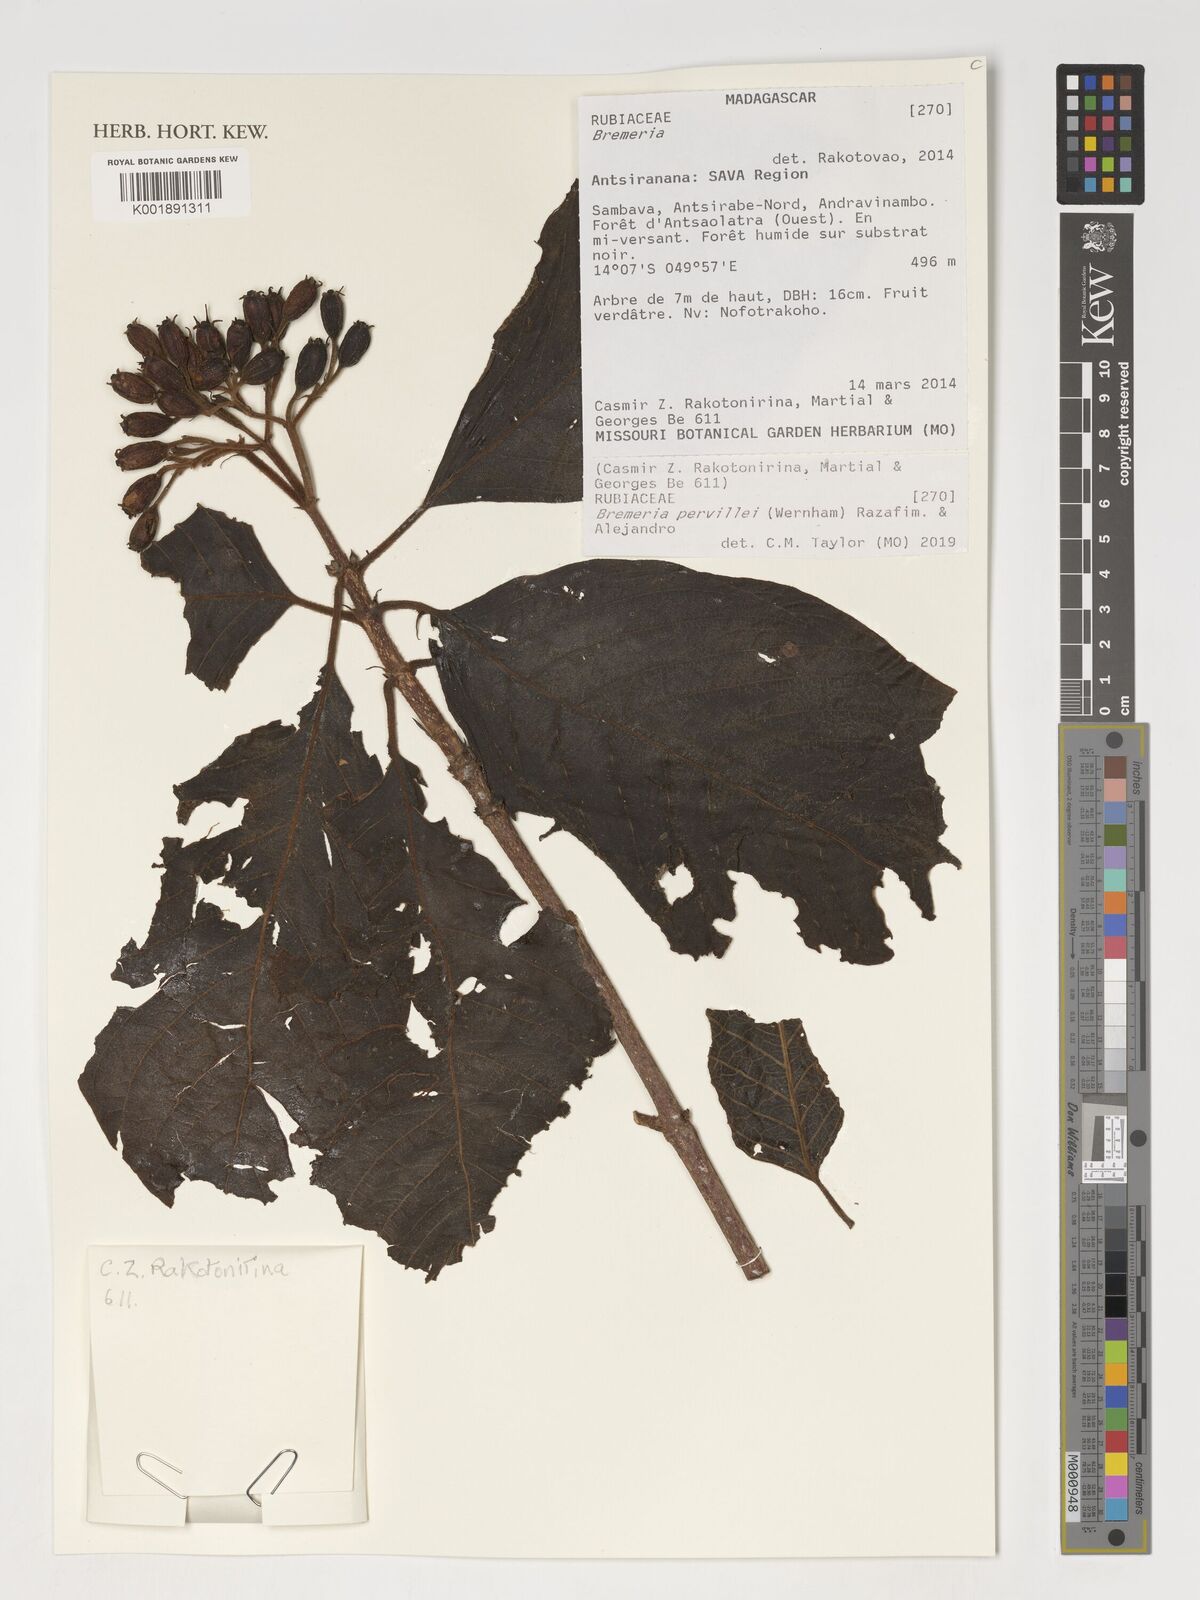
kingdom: Plantae
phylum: Tracheophyta
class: Magnoliopsida
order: Gentianales
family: Rubiaceae
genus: Bremeria
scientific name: Bremeria pervillei
